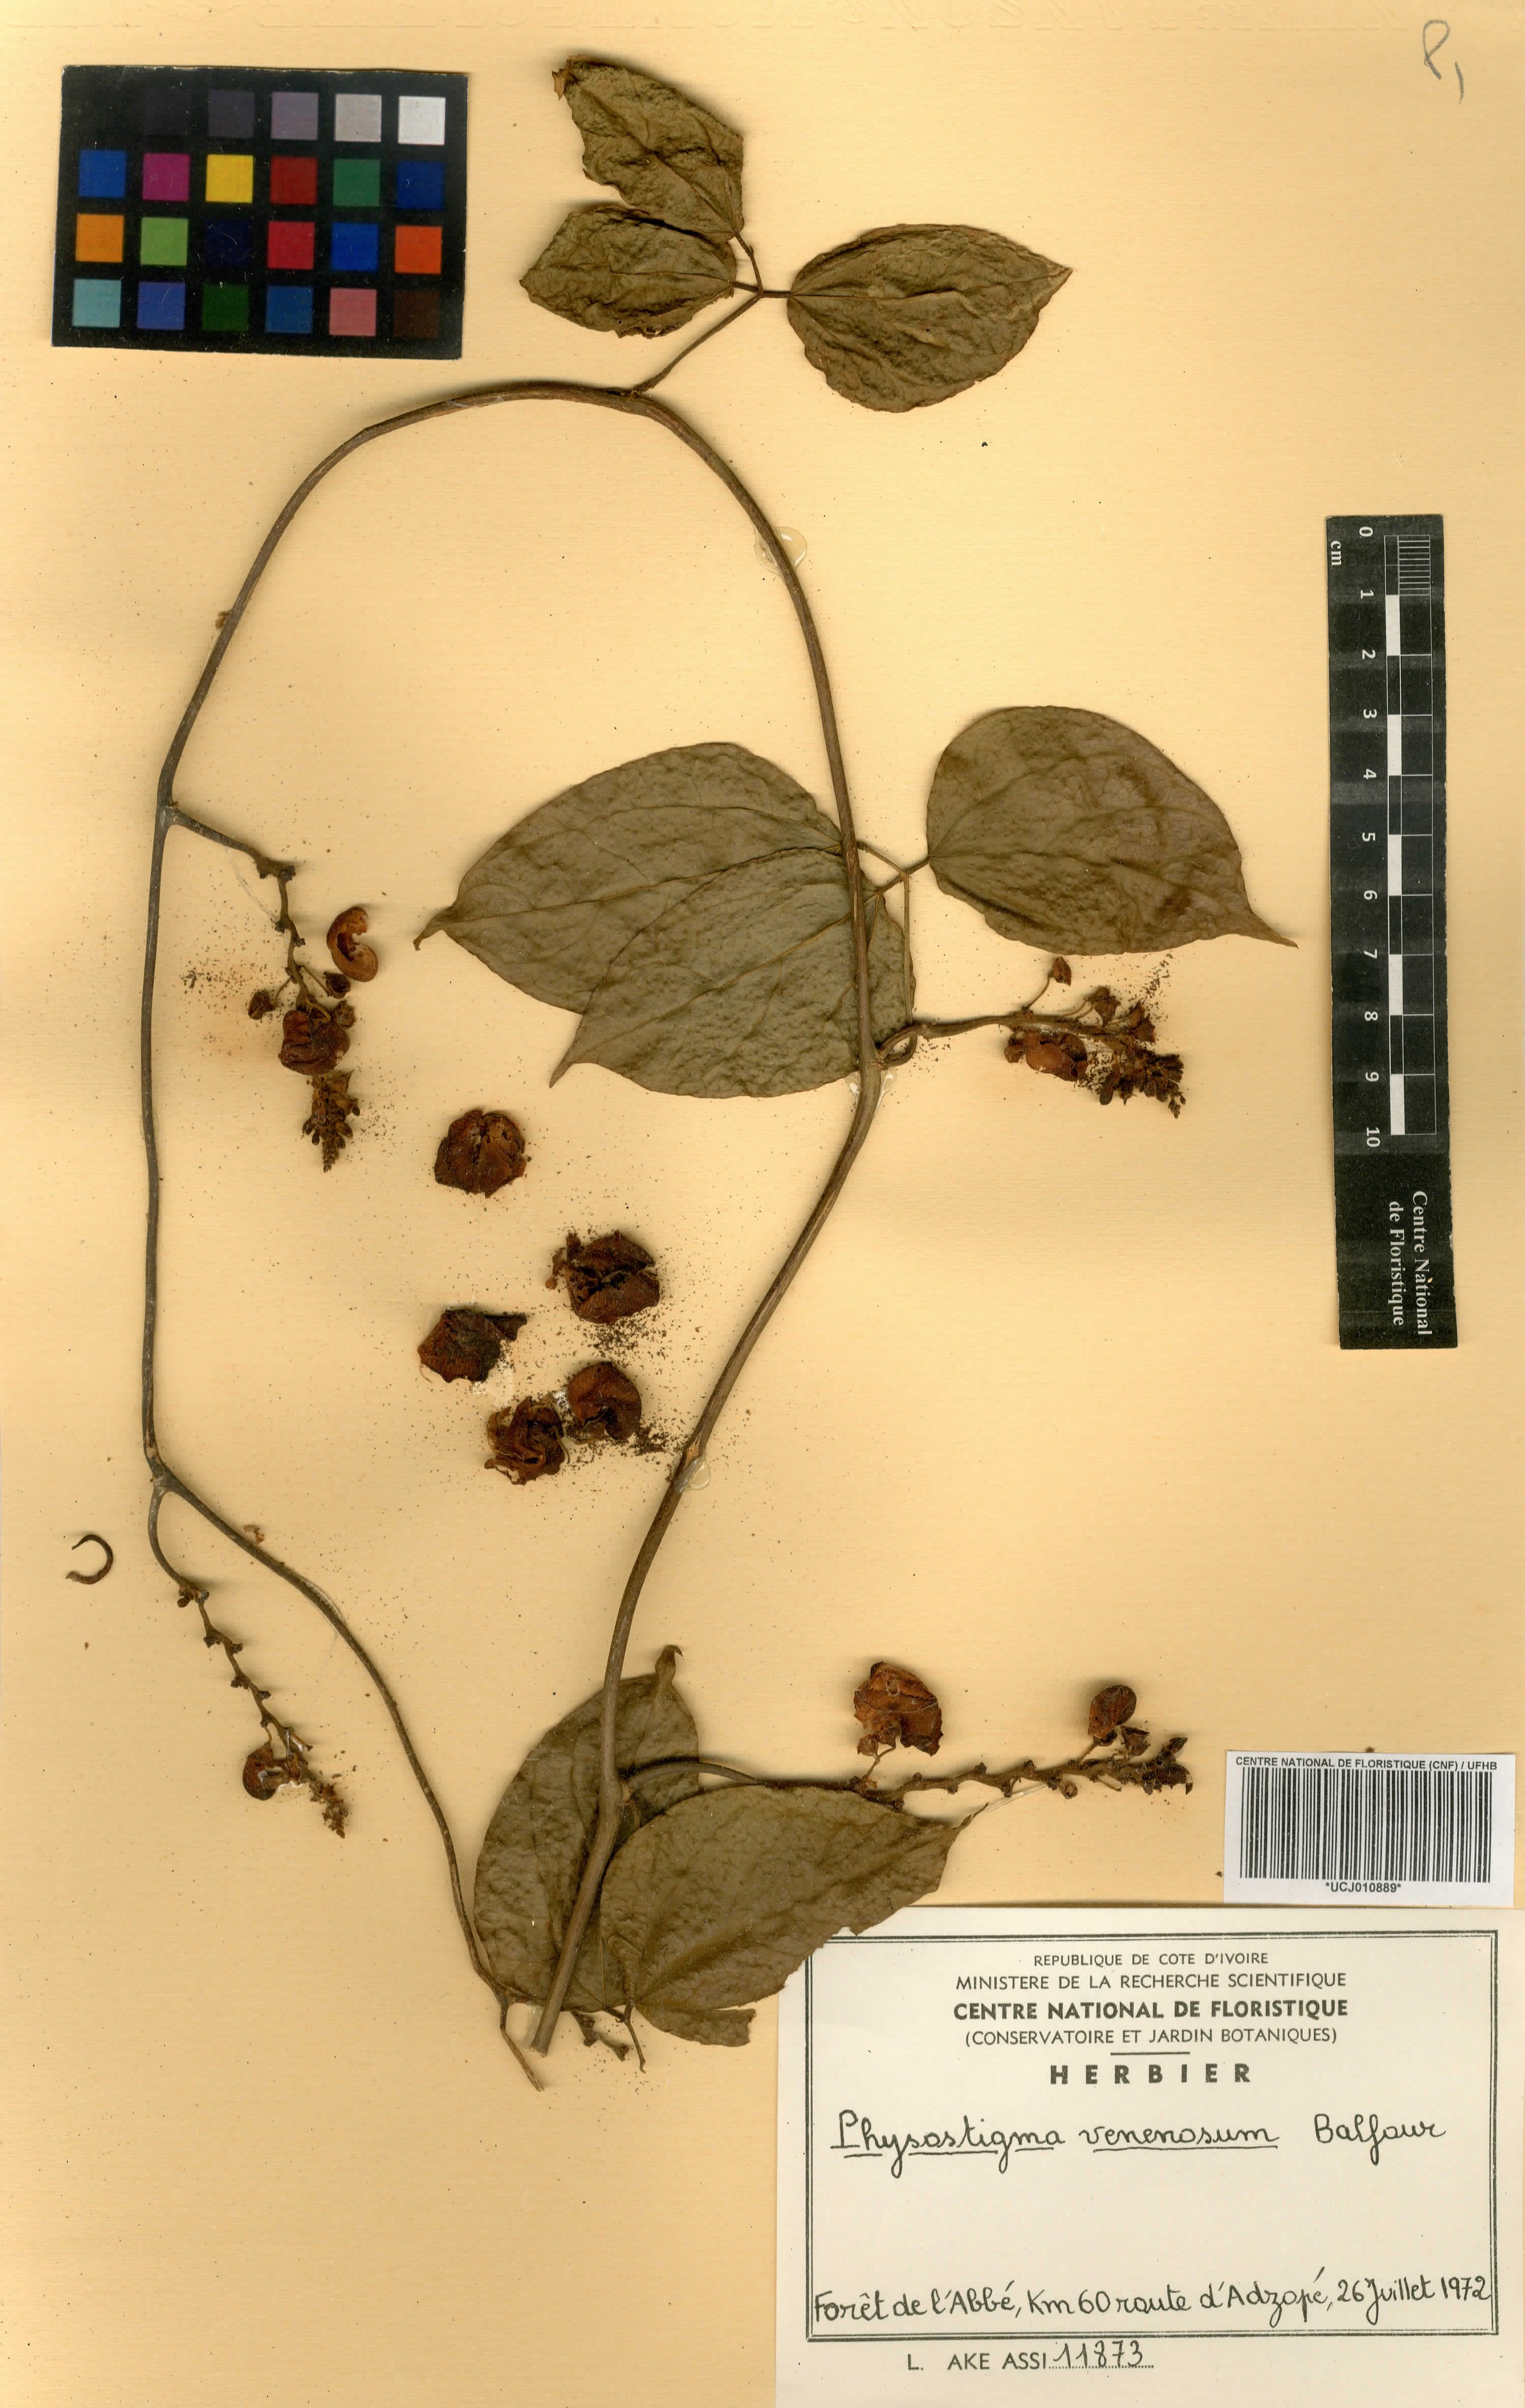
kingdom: Plantae
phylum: Tracheophyta
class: Magnoliopsida
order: Fabales
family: Fabaceae
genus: Physostigma
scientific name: Physostigma venenosum
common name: Calabar-bean
